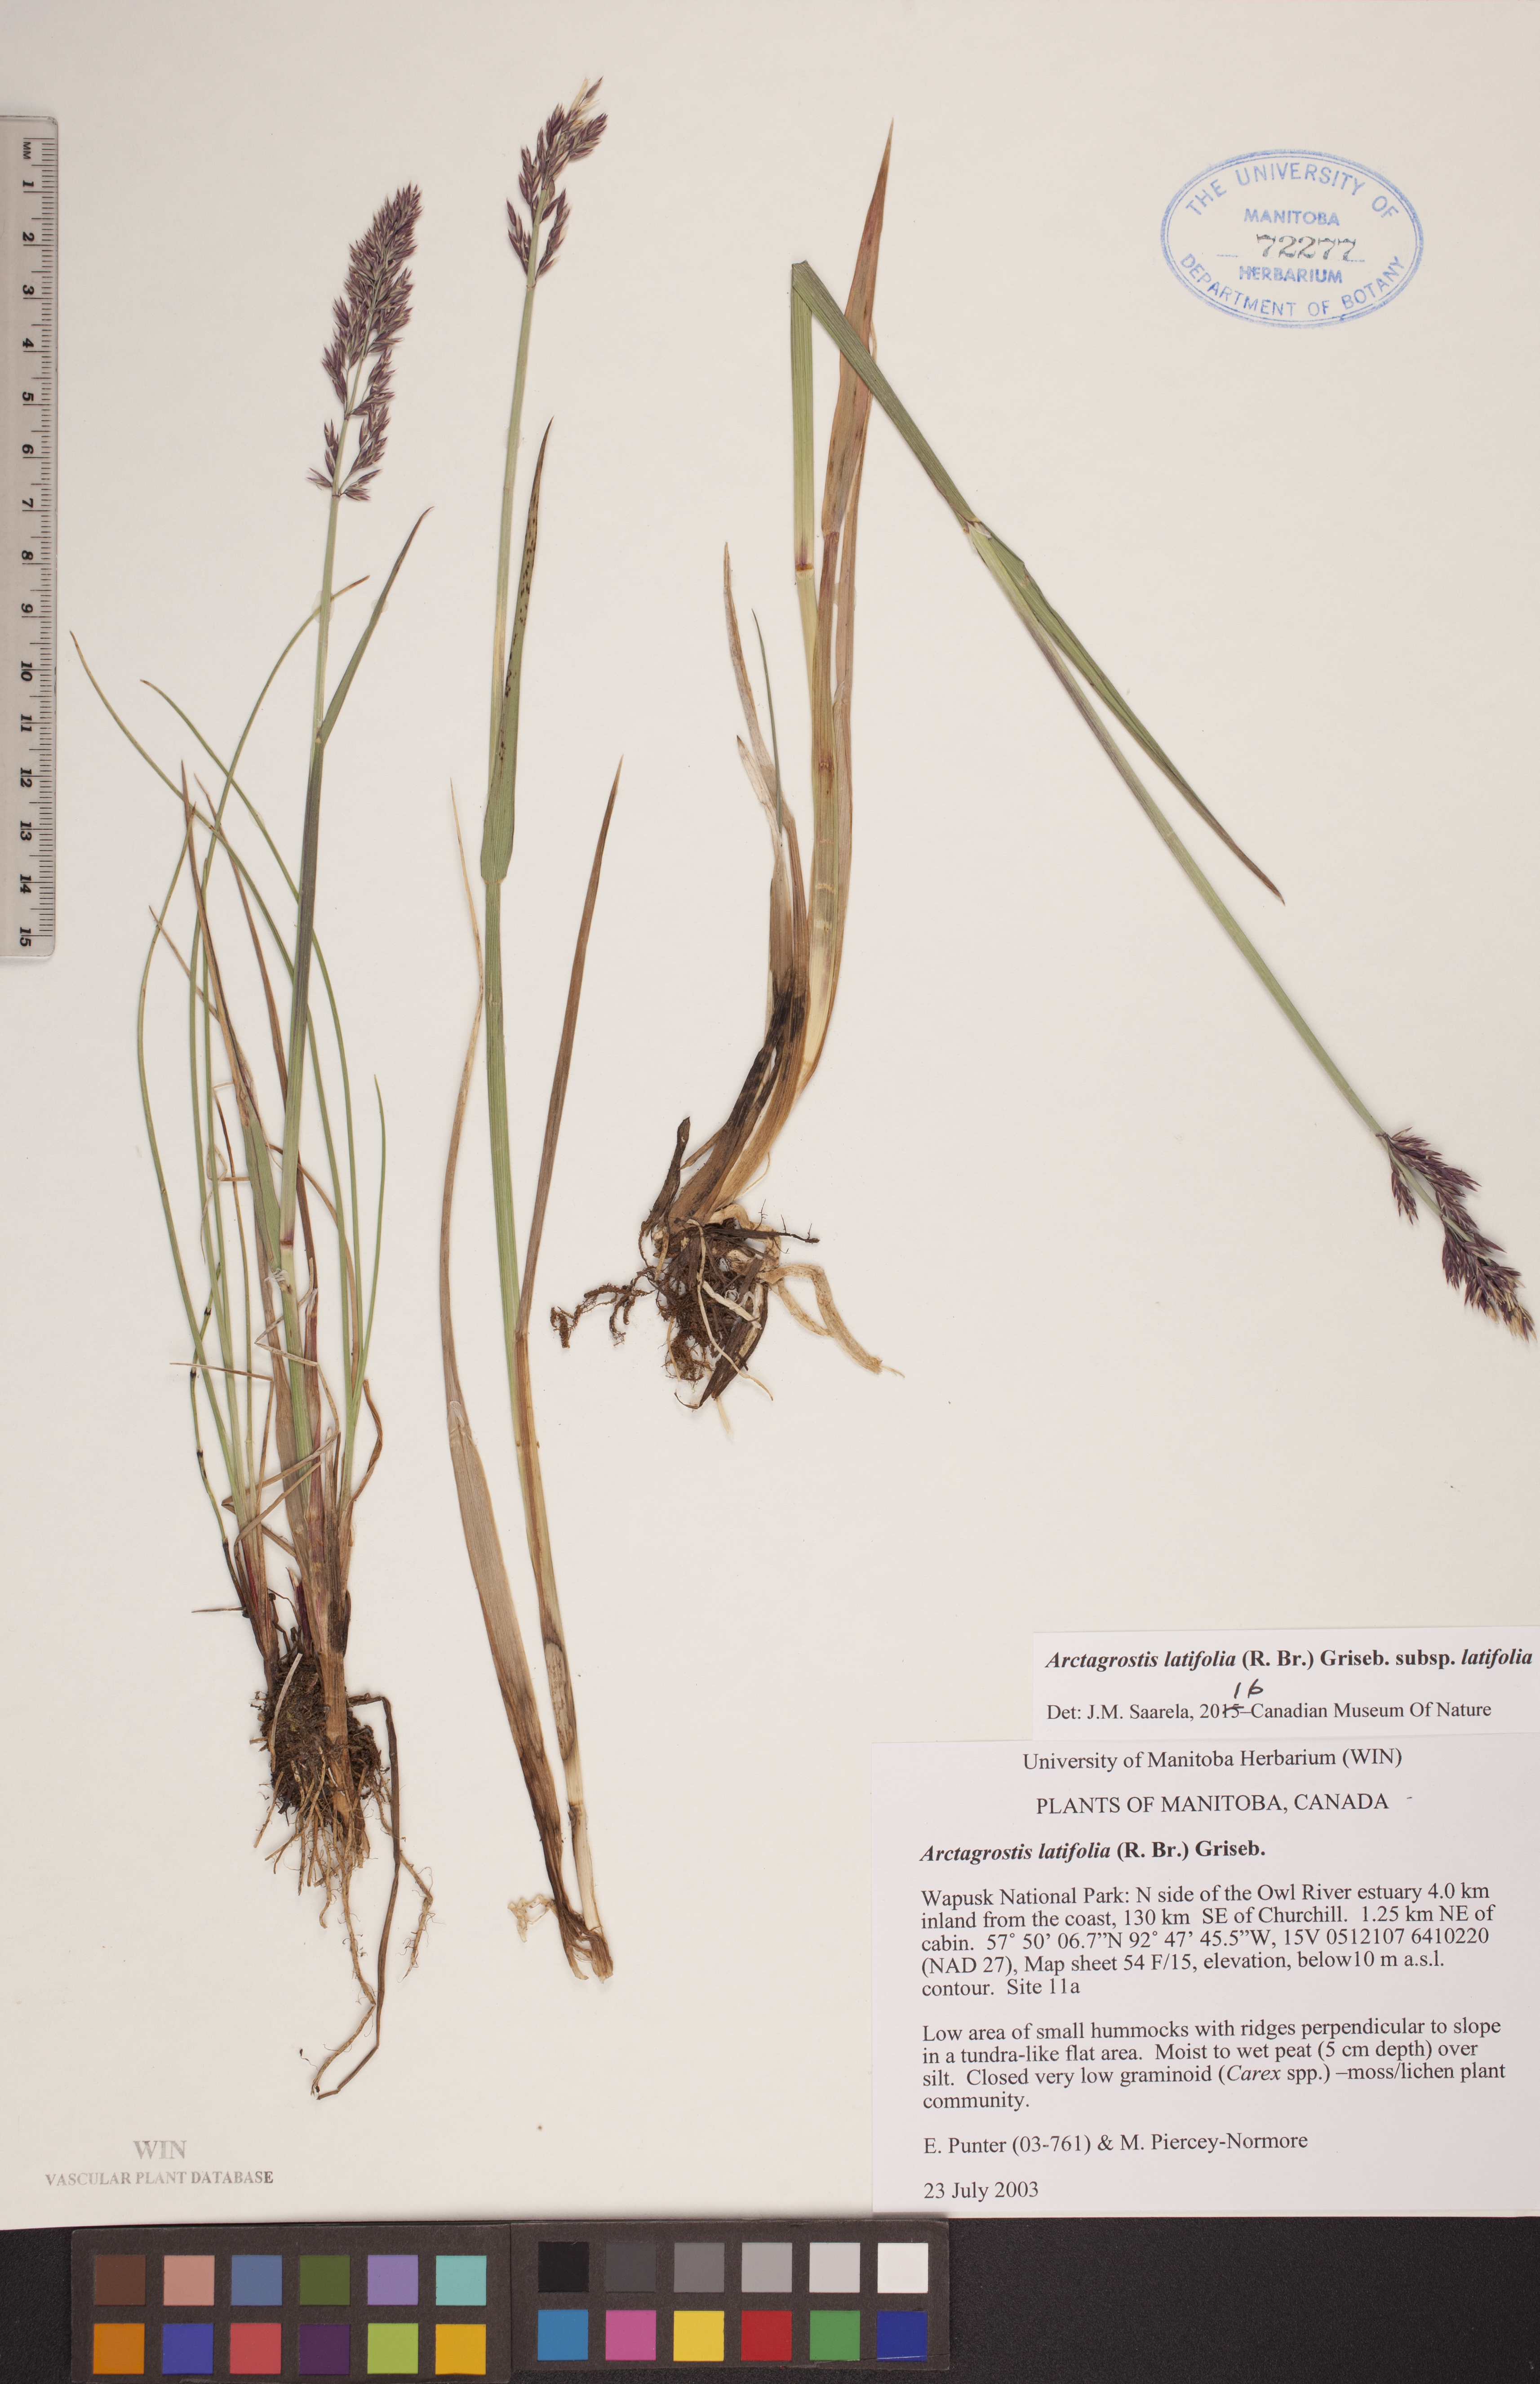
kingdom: Plantae
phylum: Tracheophyta
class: Liliopsida
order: Poales
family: Poaceae
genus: Arctagrostis
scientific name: Arctagrostis latifolia
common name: Arctic grass
